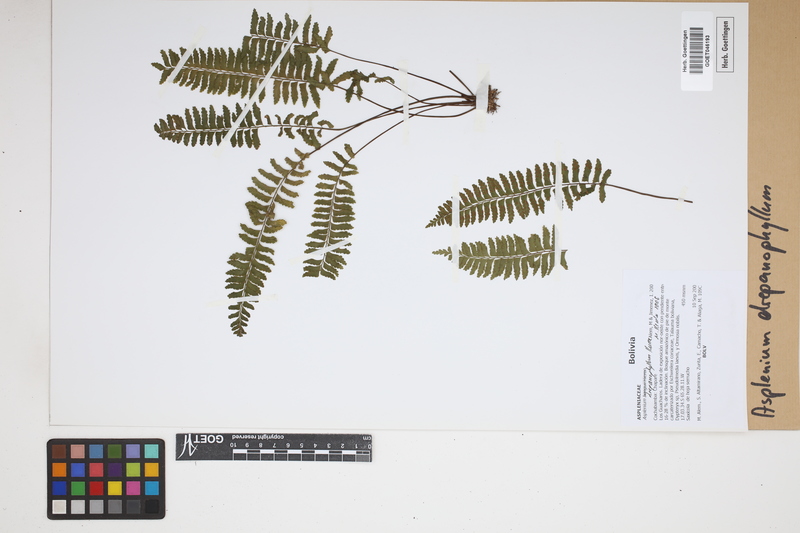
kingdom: Plantae
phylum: Tracheophyta
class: Polypodiopsida
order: Polypodiales
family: Aspleniaceae
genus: Asplenium
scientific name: Asplenium drepanophyllum
